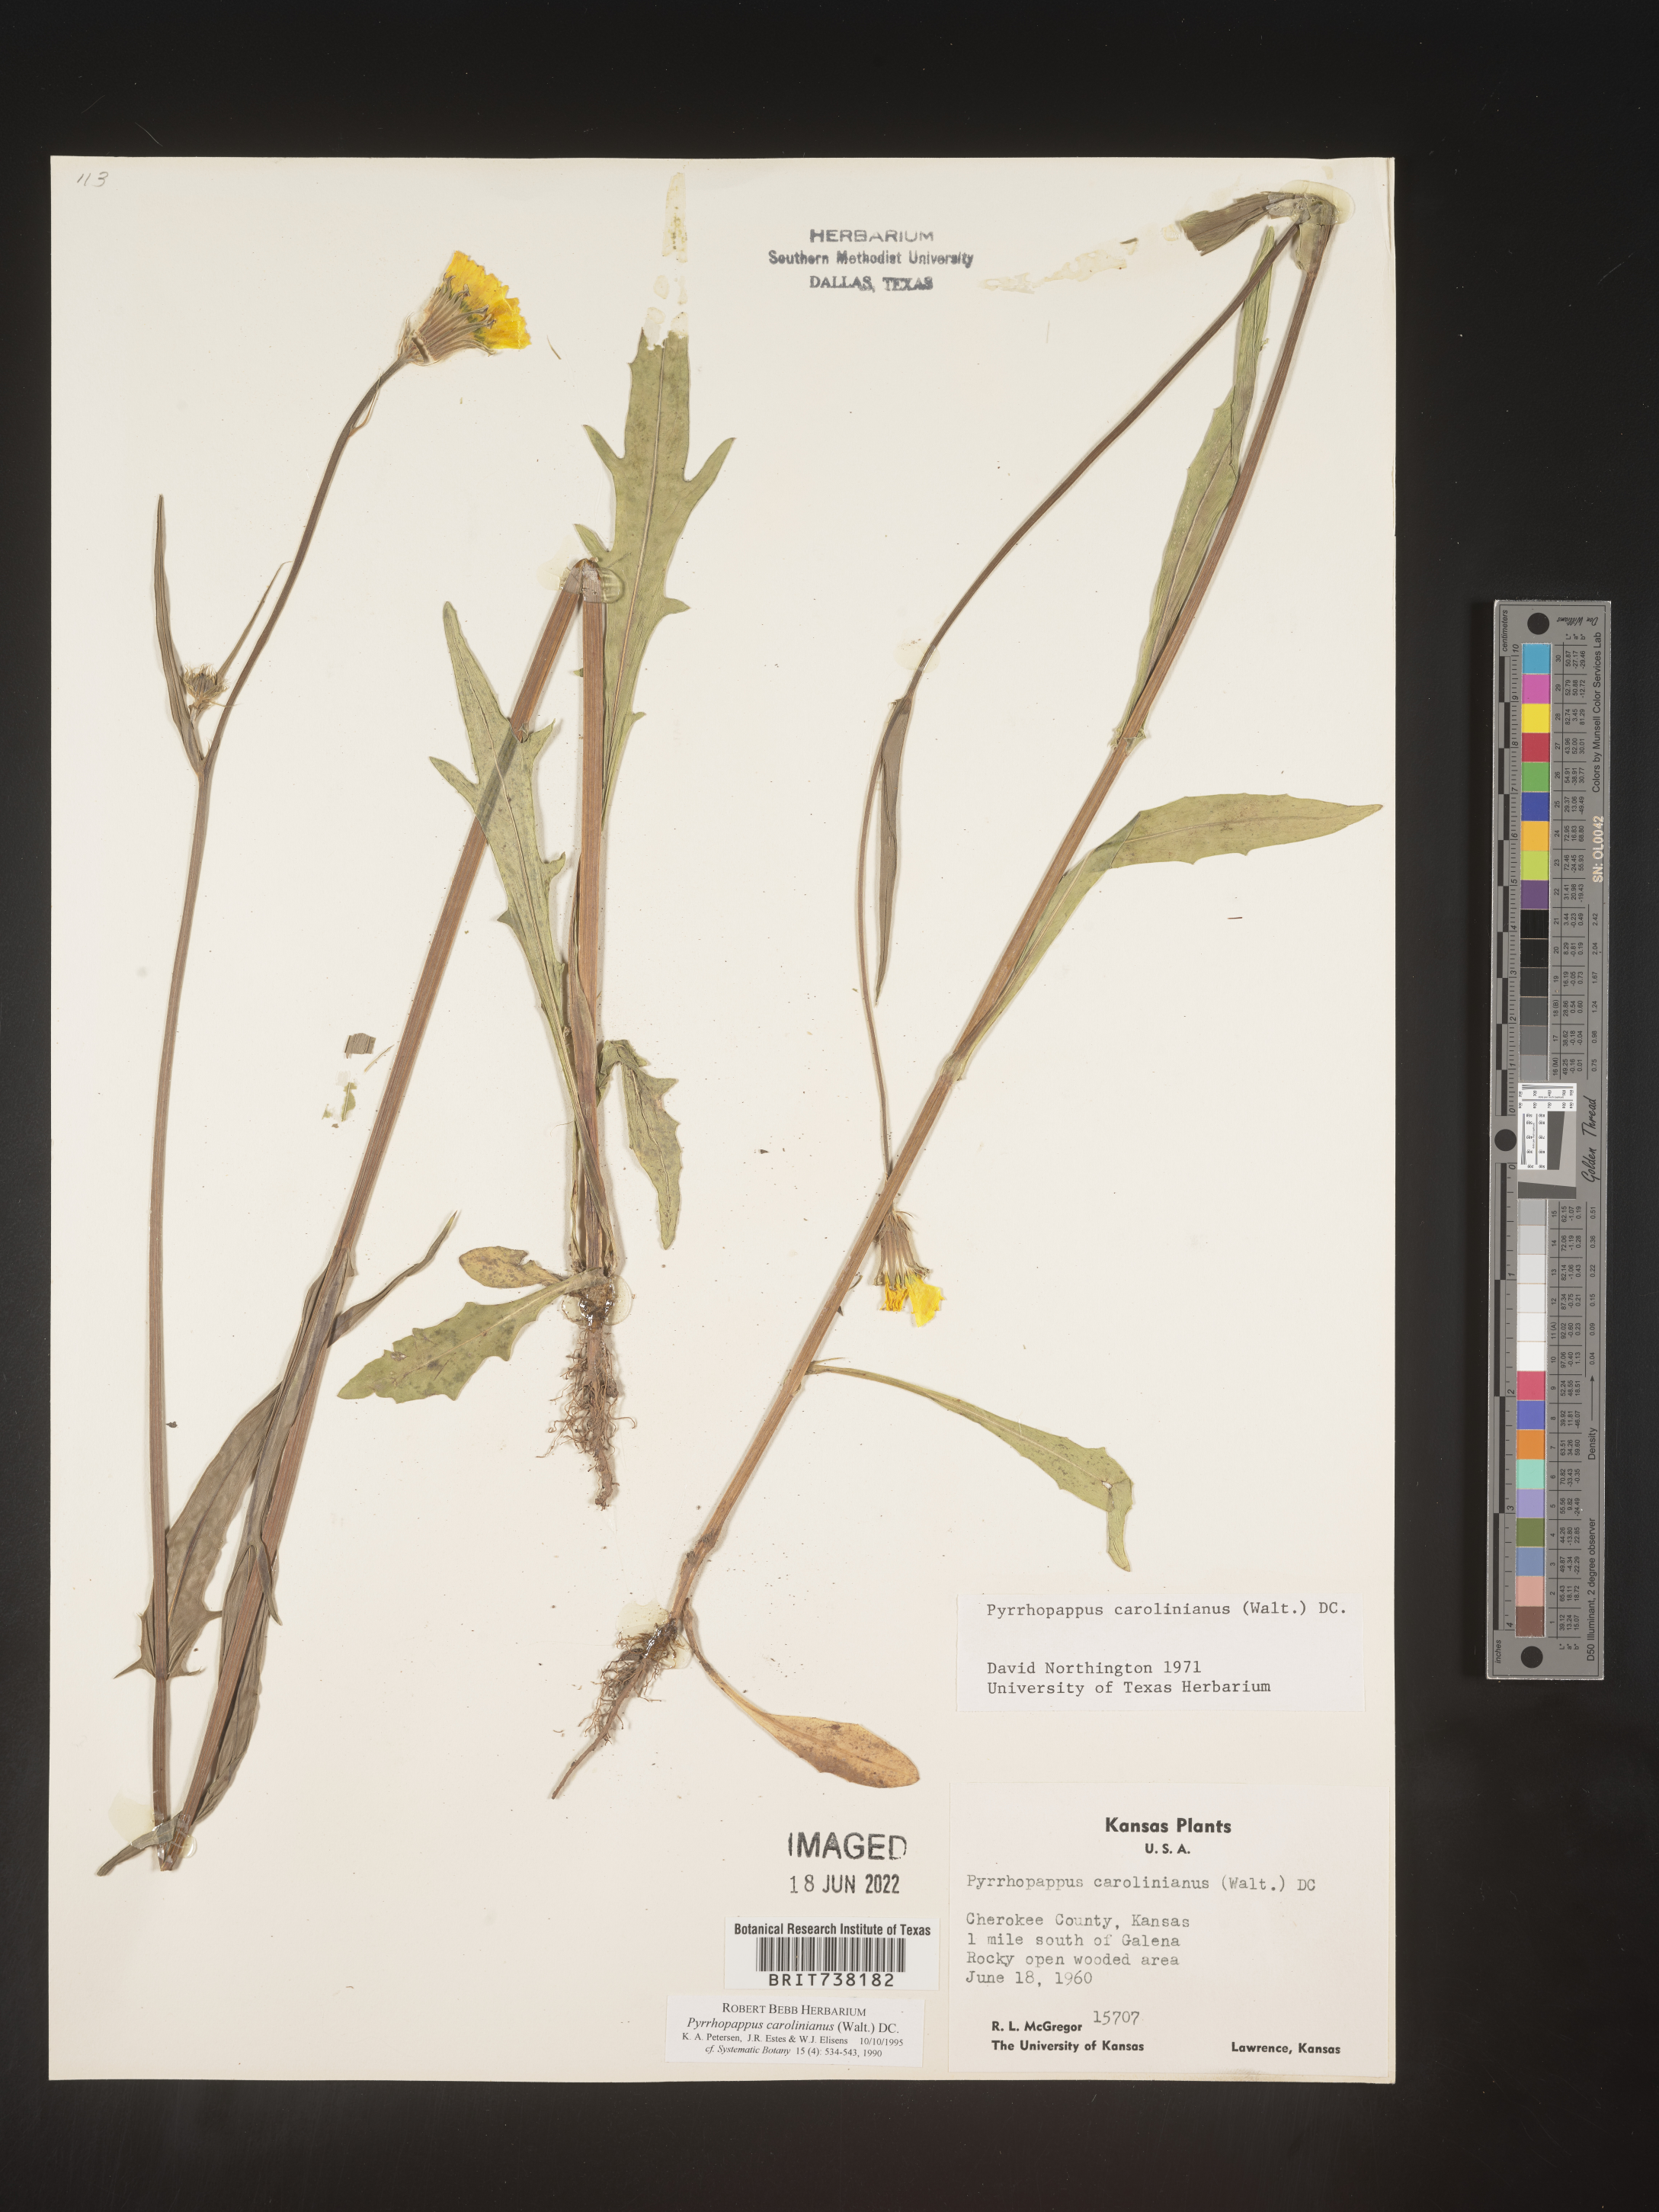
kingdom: Plantae
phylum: Tracheophyta
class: Magnoliopsida
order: Asterales
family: Asteraceae
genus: Pyrrhopappus
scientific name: Pyrrhopappus carolinianus
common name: Carolina desert-chicory
